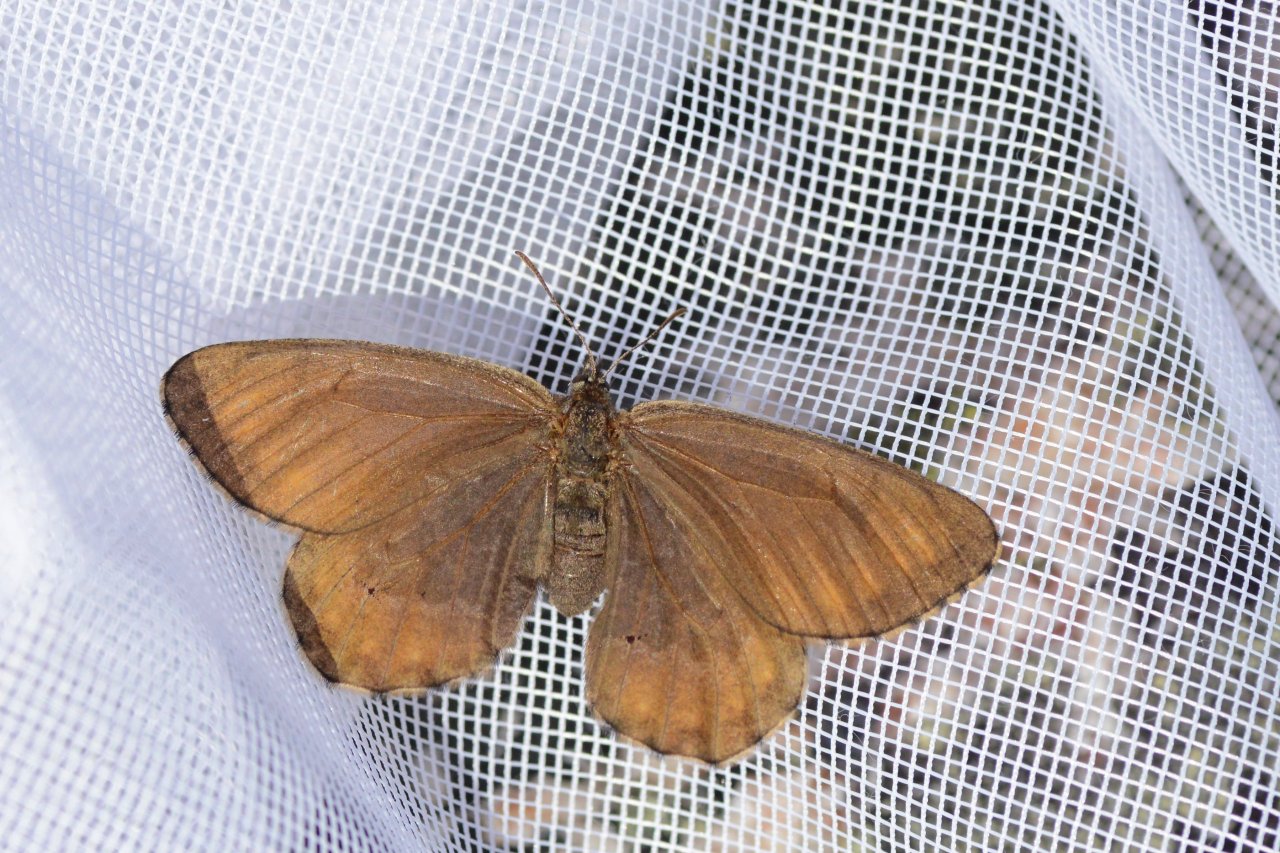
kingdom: Animalia
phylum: Arthropoda
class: Insecta
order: Lepidoptera
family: Nymphalidae
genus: Oeneis
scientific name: Oeneis bore
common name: White-veined Arctic
